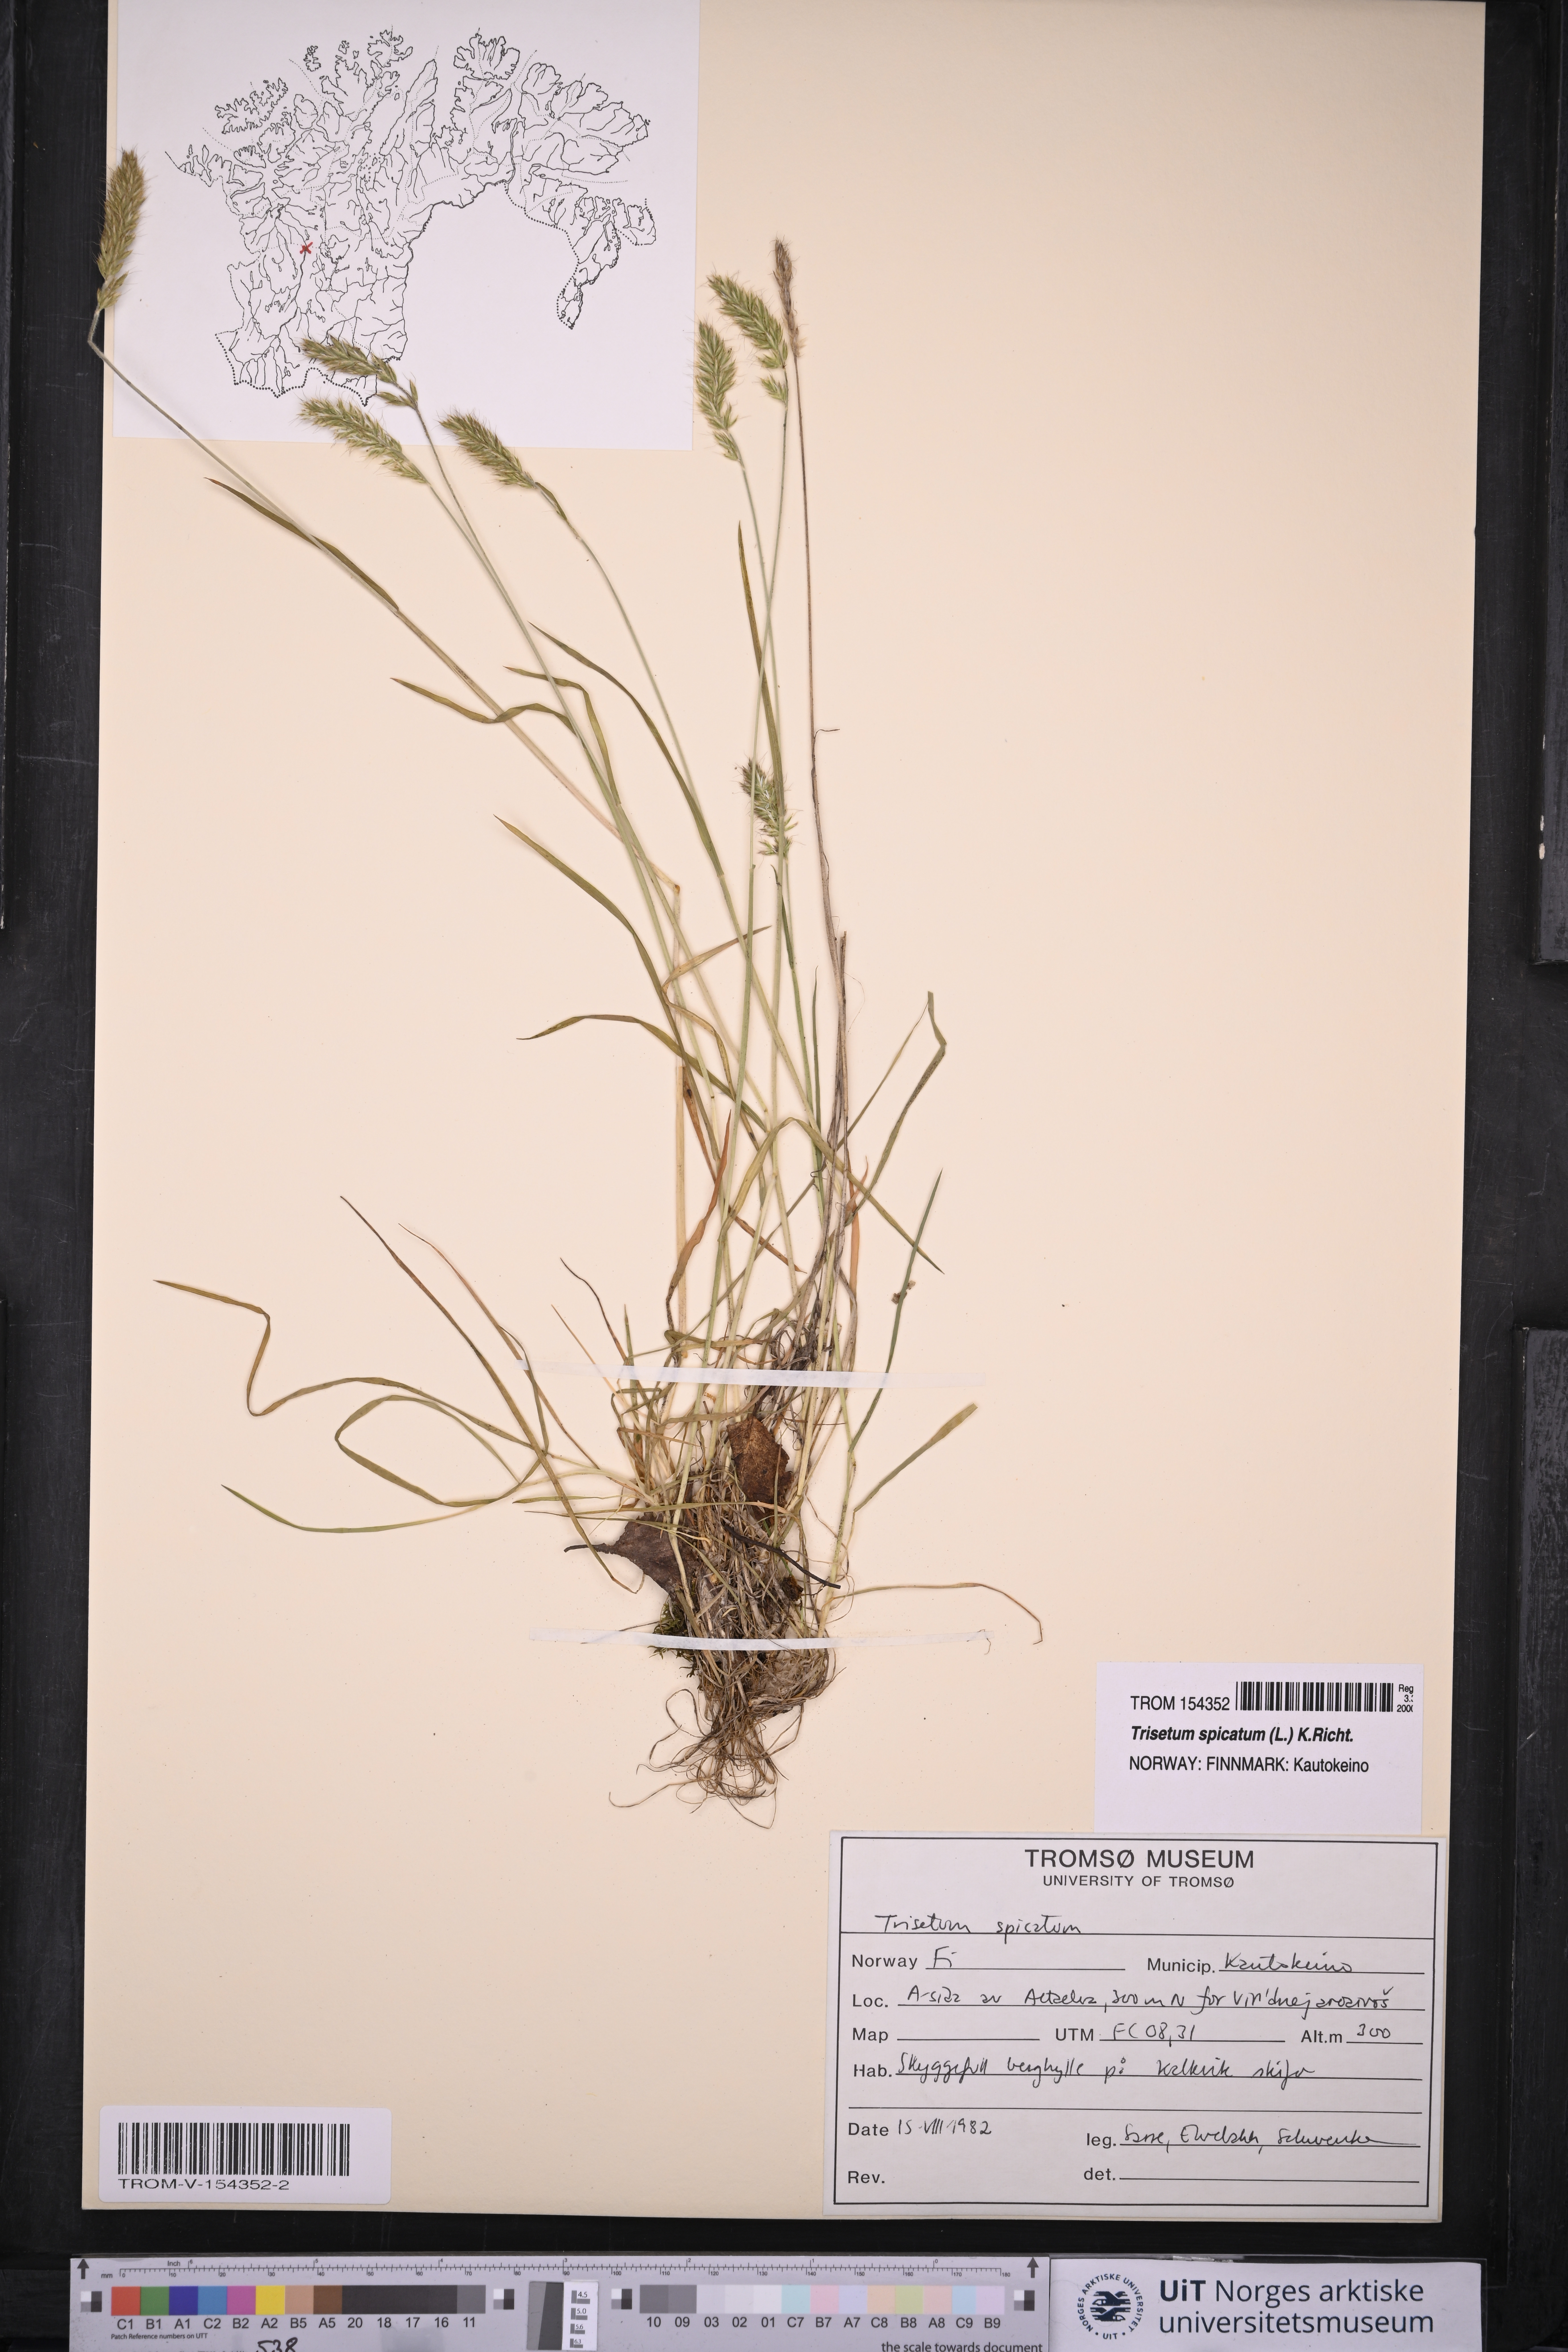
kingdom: Plantae
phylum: Tracheophyta
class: Liliopsida
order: Poales
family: Poaceae
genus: Koeleria
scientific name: Koeleria spicata
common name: Mountain trisetum
